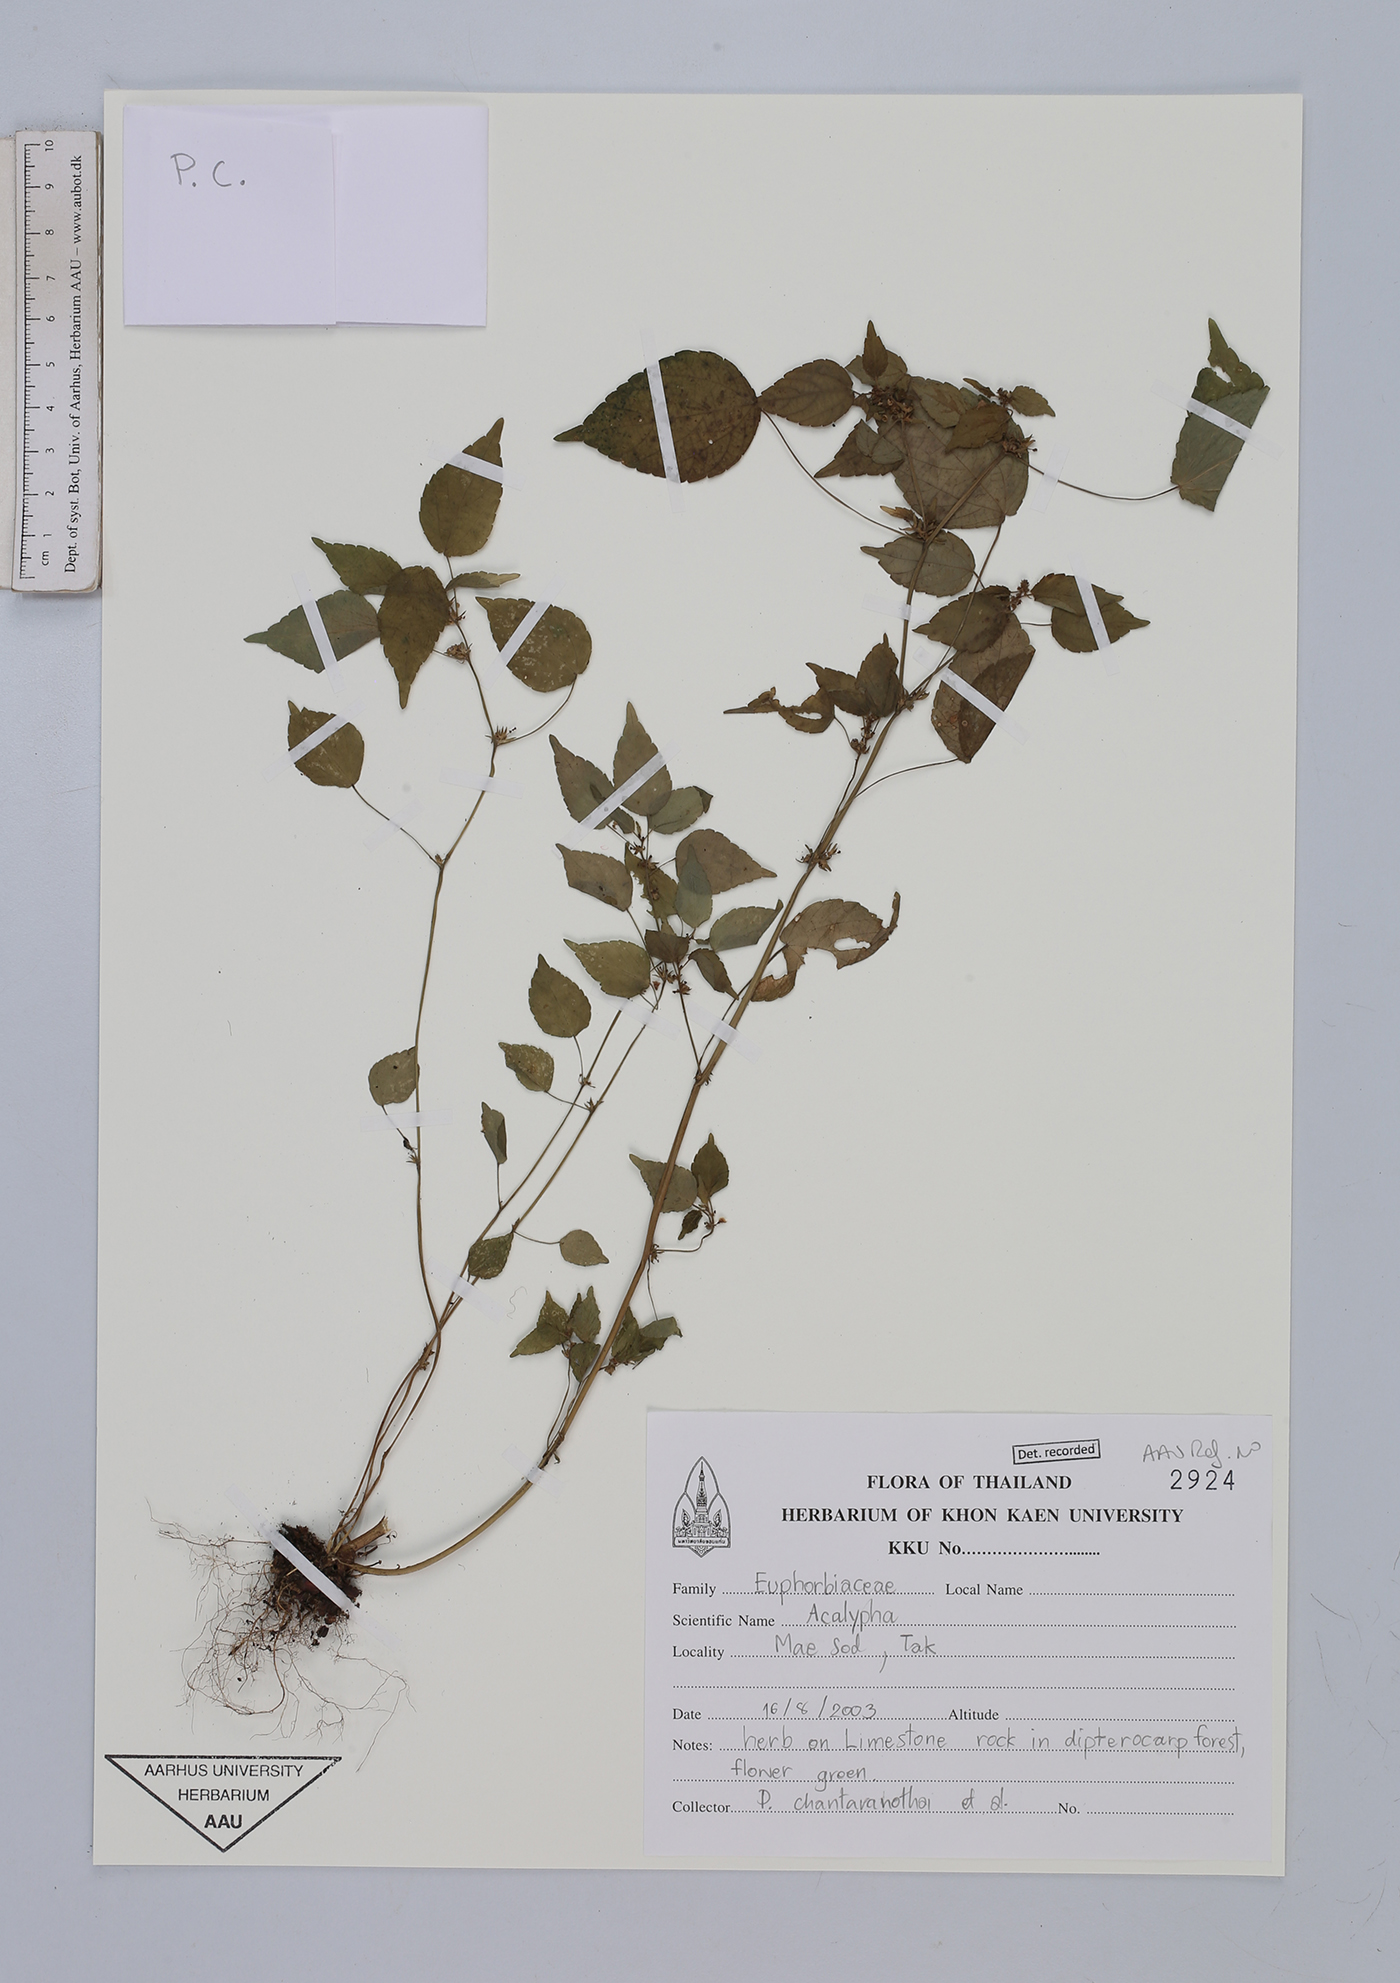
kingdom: Plantae
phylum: Tracheophyta
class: Magnoliopsida
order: Malpighiales
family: Euphorbiaceae
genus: Acalypha
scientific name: Acalypha
